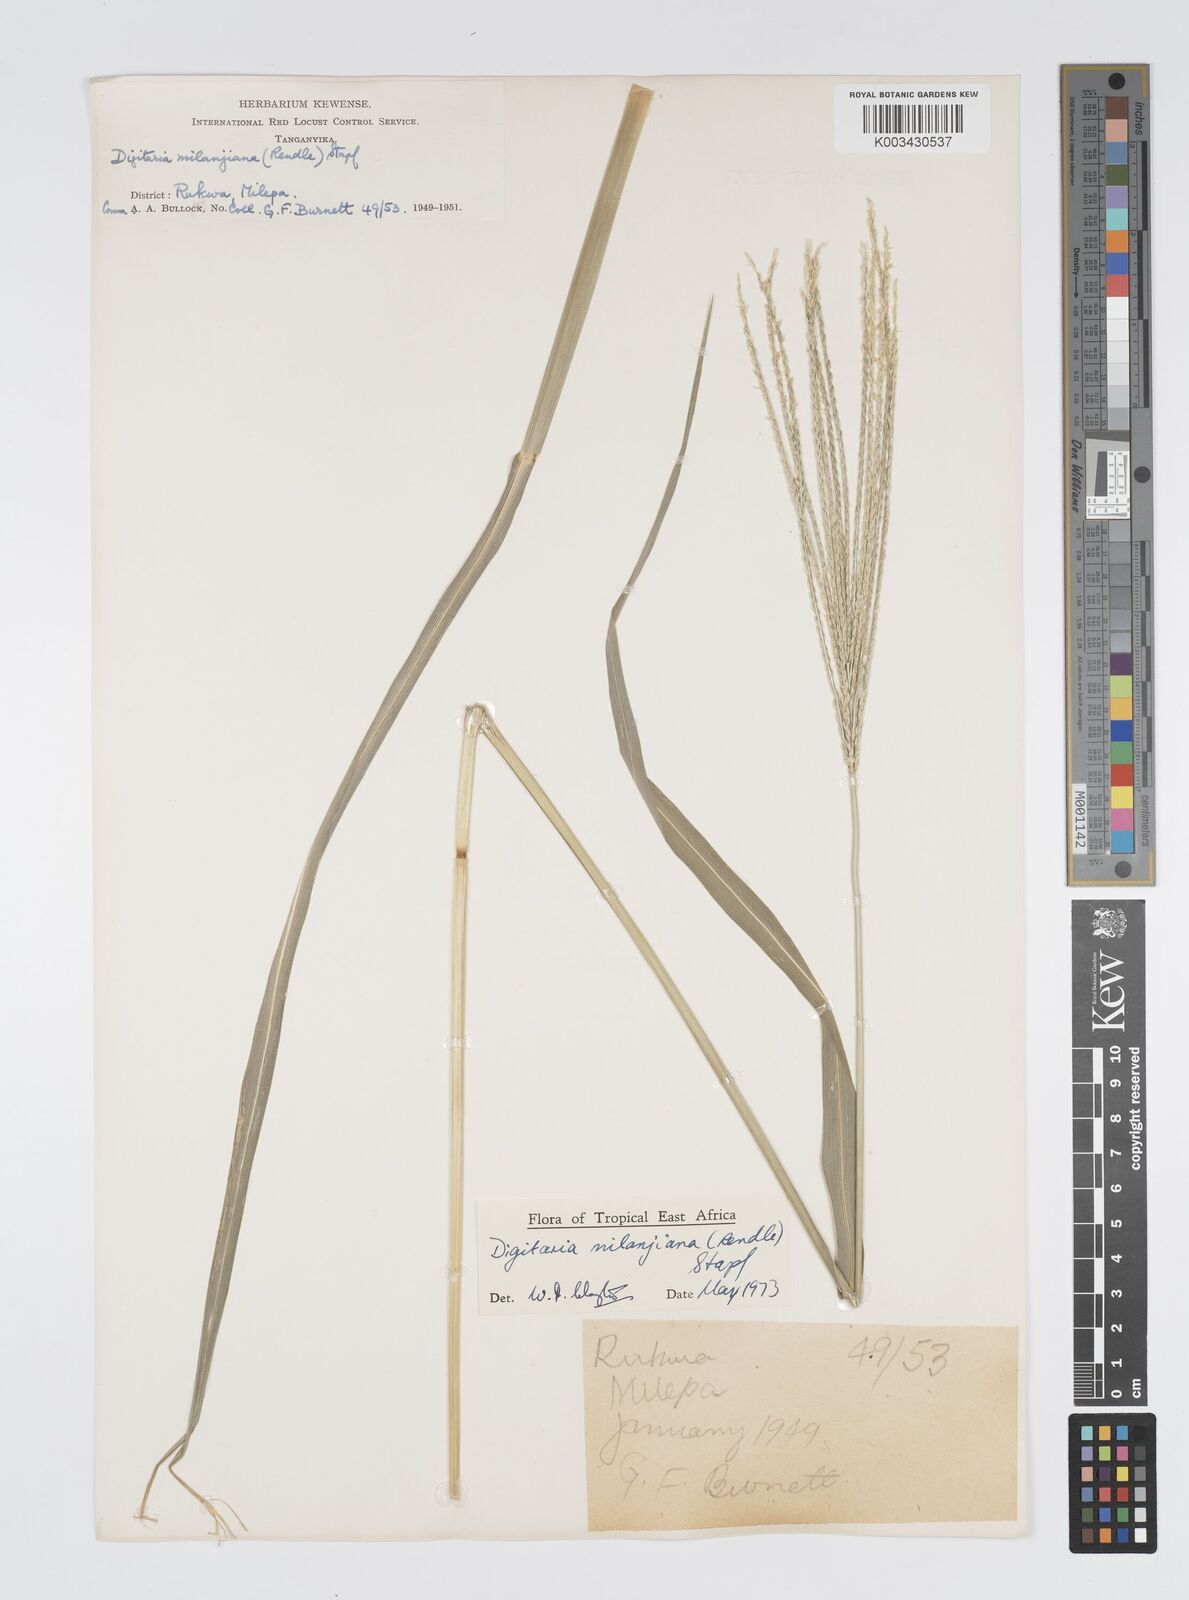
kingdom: Plantae
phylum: Tracheophyta
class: Liliopsida
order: Poales
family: Poaceae
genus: Digitaria
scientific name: Digitaria milanjiana
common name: Madagascar crabgrass
